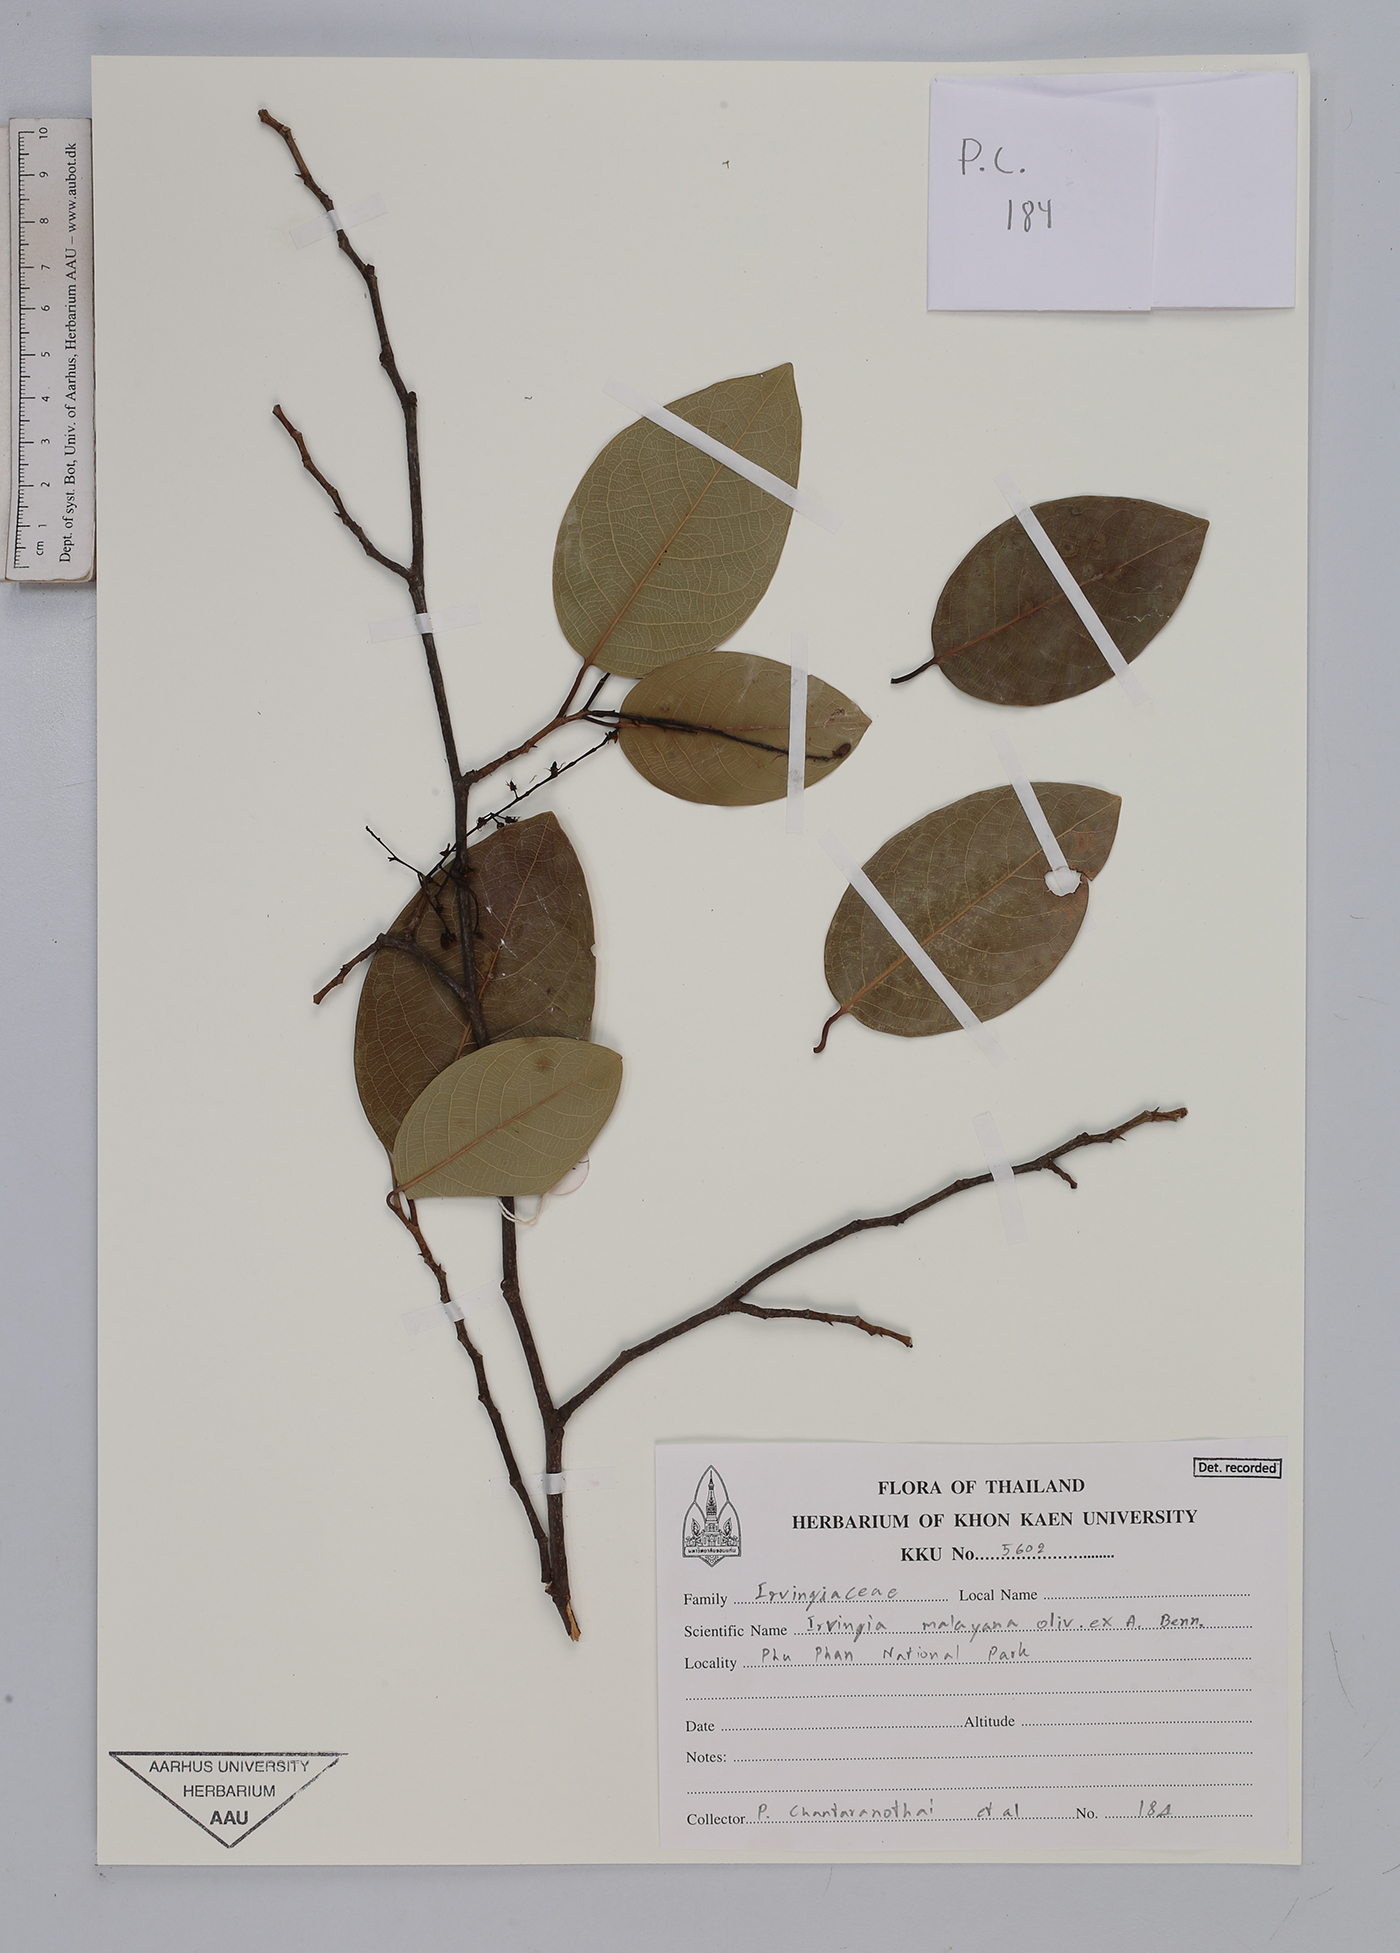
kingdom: Plantae
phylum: Tracheophyta
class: Magnoliopsida
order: Malpighiales
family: Irvingiaceae
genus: Irvingia
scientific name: Irvingia malayana
